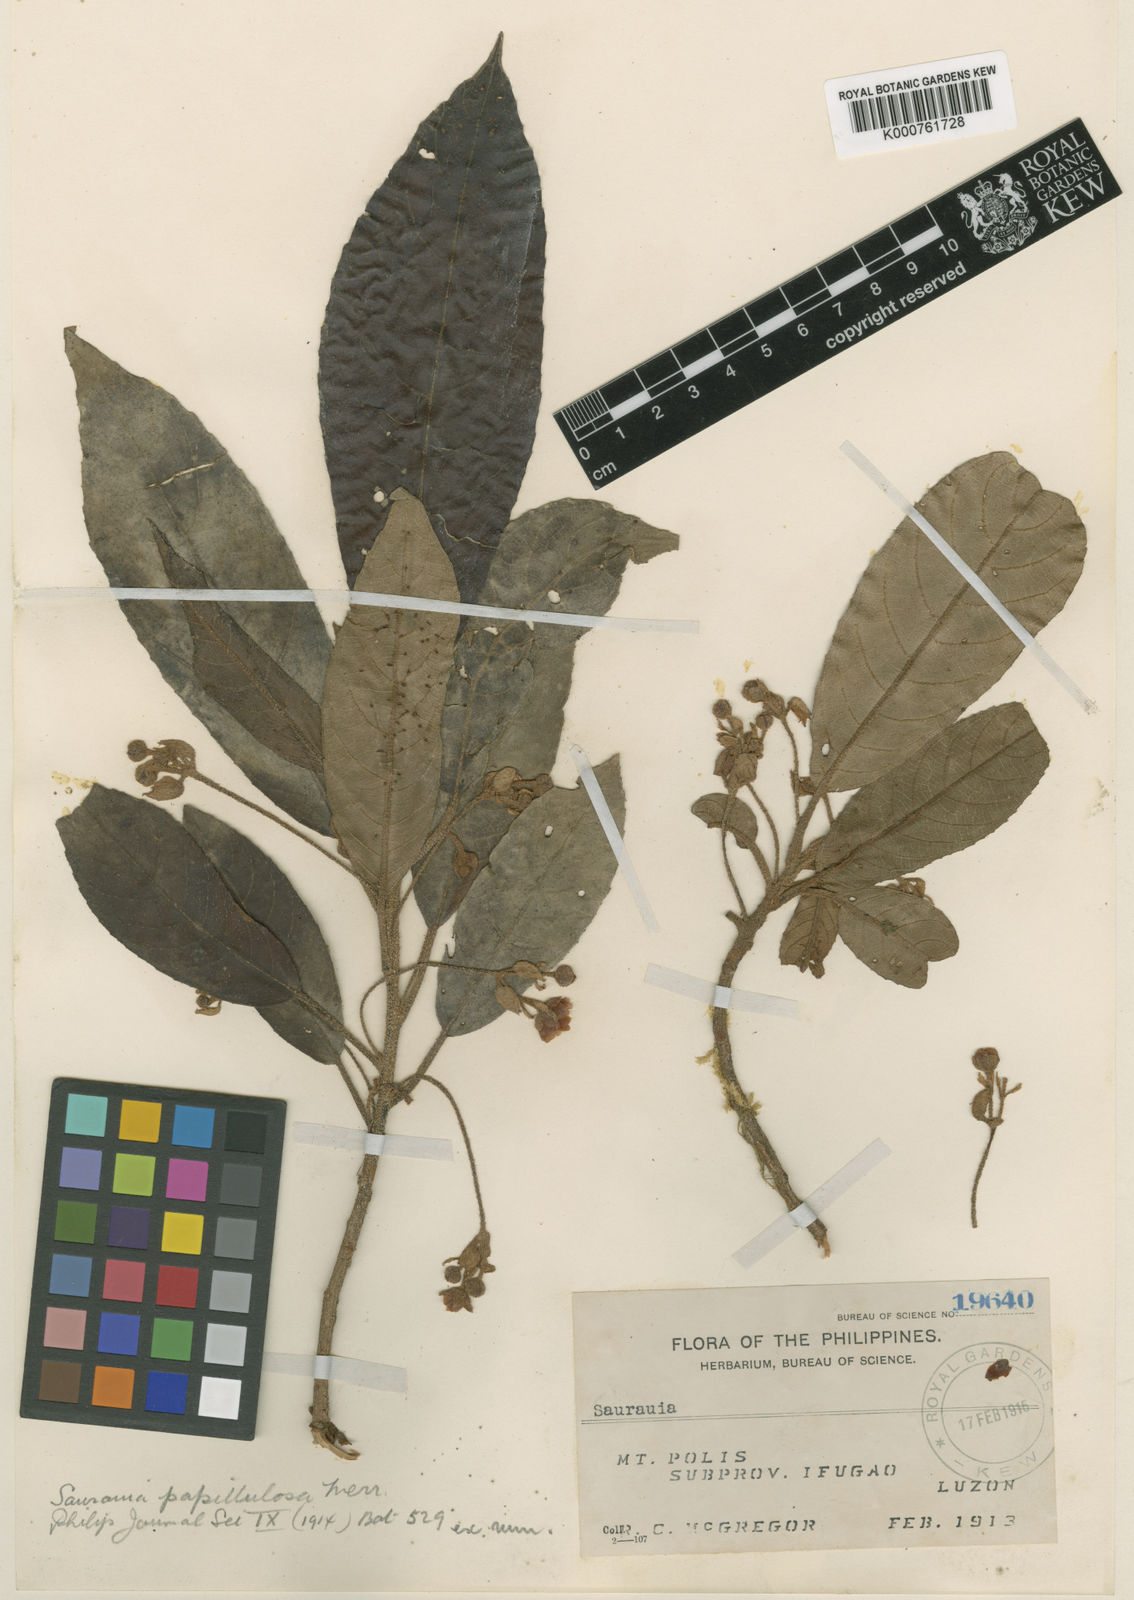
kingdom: Plantae
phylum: Tracheophyta
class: Magnoliopsida
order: Ericales
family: Actinidiaceae
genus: Saurauia
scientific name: Saurauia papillulosa
